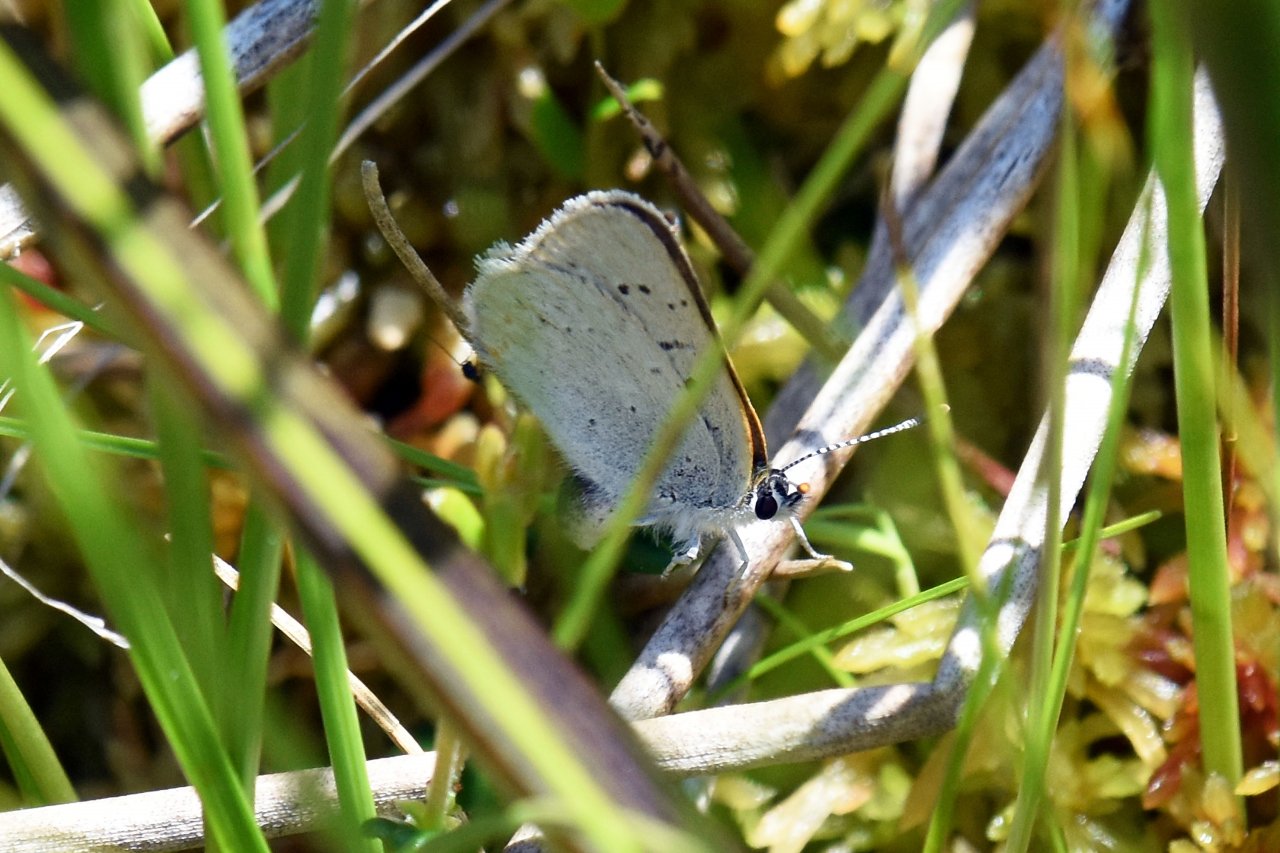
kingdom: Animalia
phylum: Arthropoda
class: Insecta
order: Lepidoptera
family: Sesiidae
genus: Sesia
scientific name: Sesia Lycaena epixanthe
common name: Bog Copper
